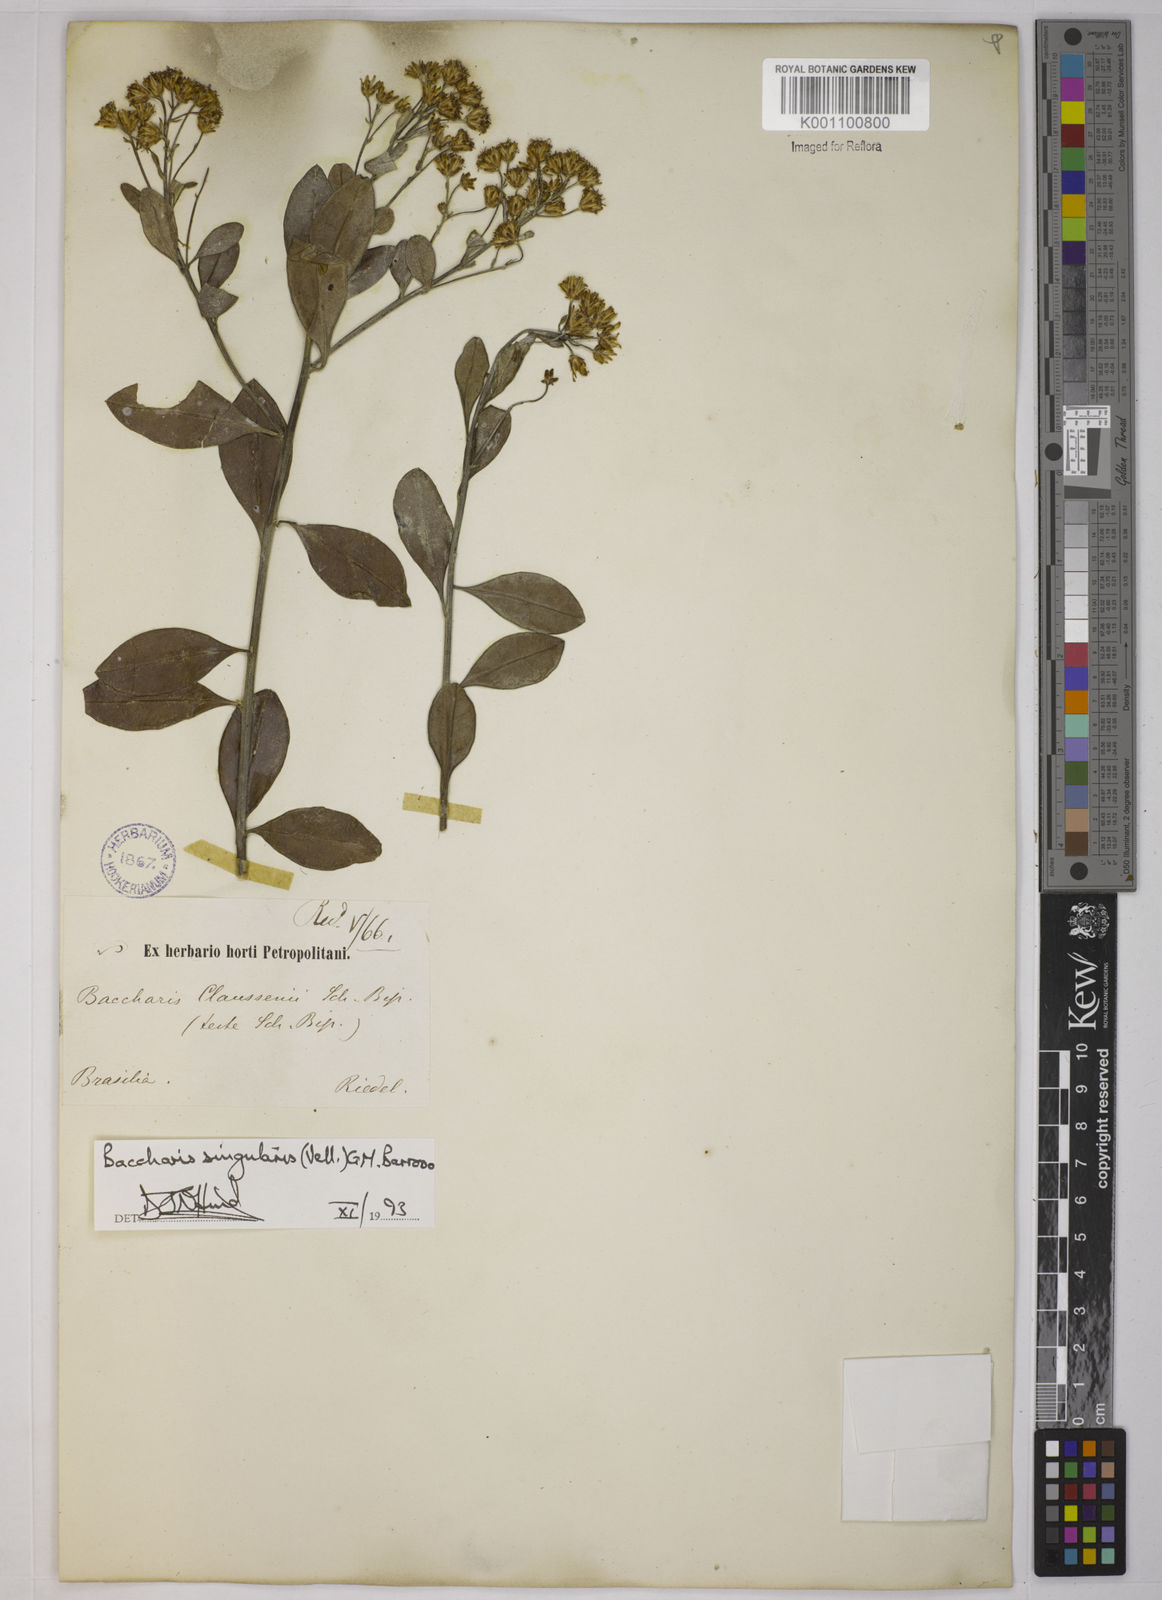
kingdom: Plantae
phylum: Tracheophyta
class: Magnoliopsida
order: Asterales
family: Asteraceae
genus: Baccharis
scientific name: Baccharis
